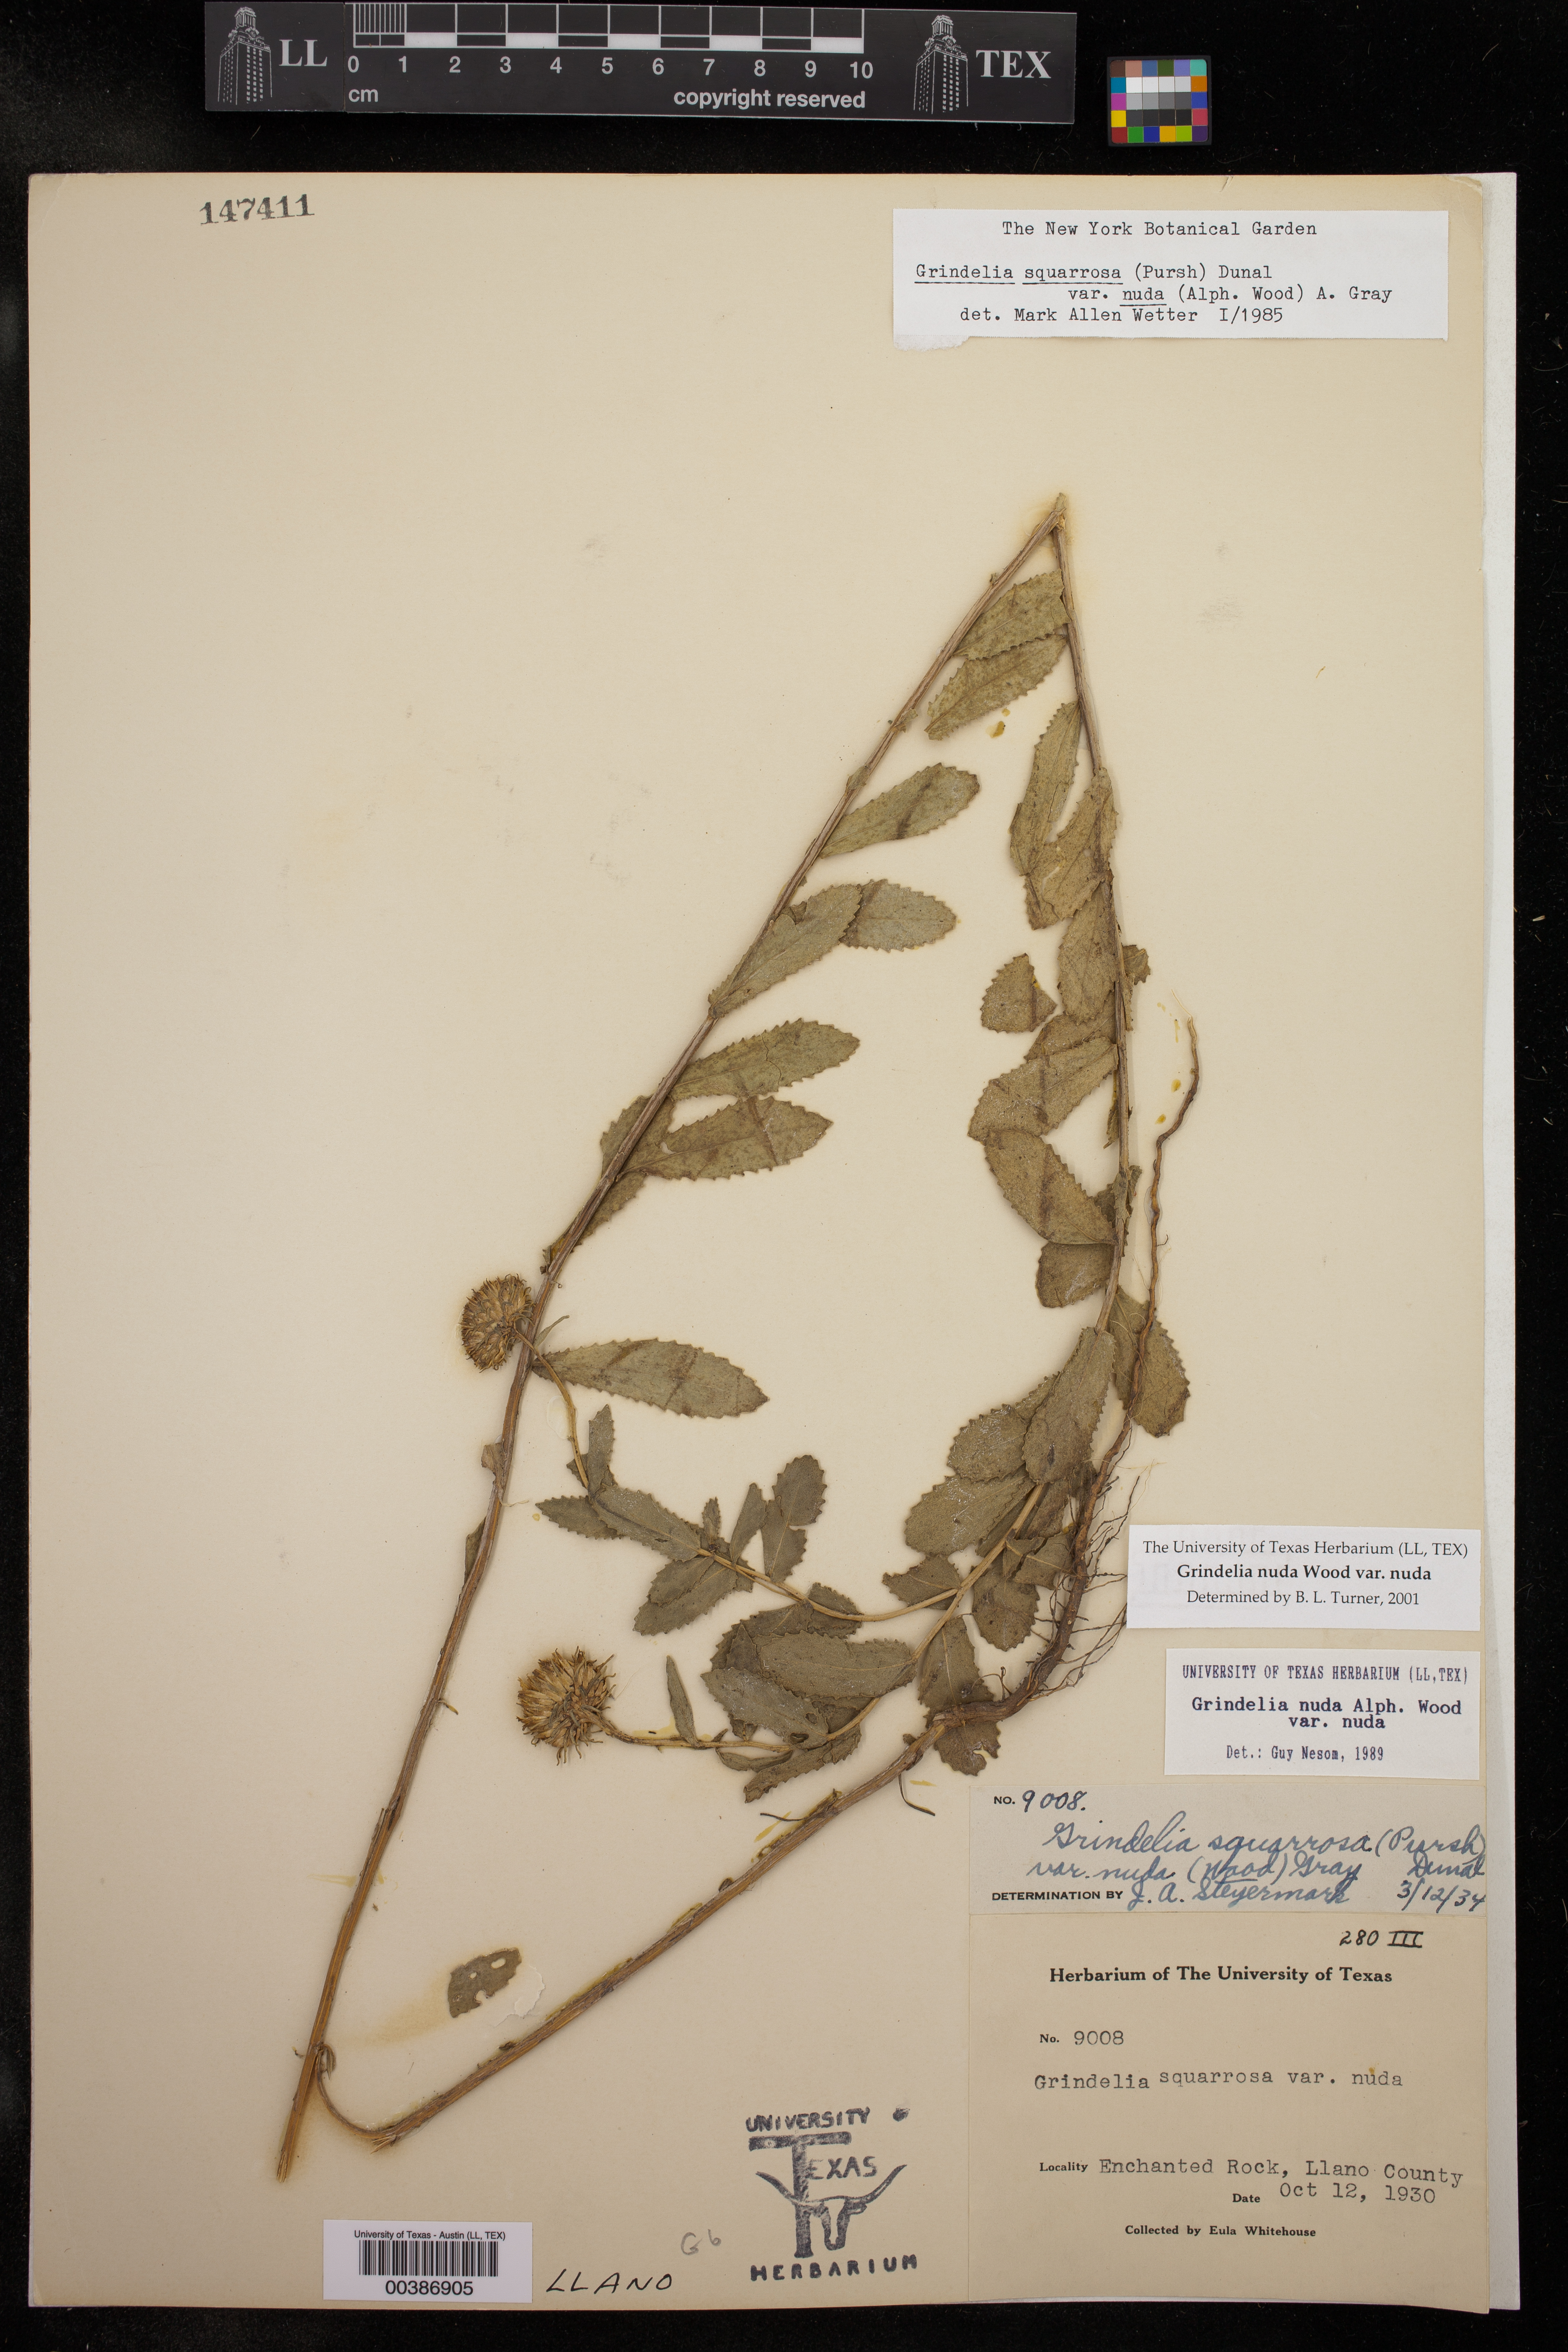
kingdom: Plantae
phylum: Tracheophyta
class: Magnoliopsida
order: Asterales
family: Asteraceae
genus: Grindelia
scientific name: Grindelia nuda
